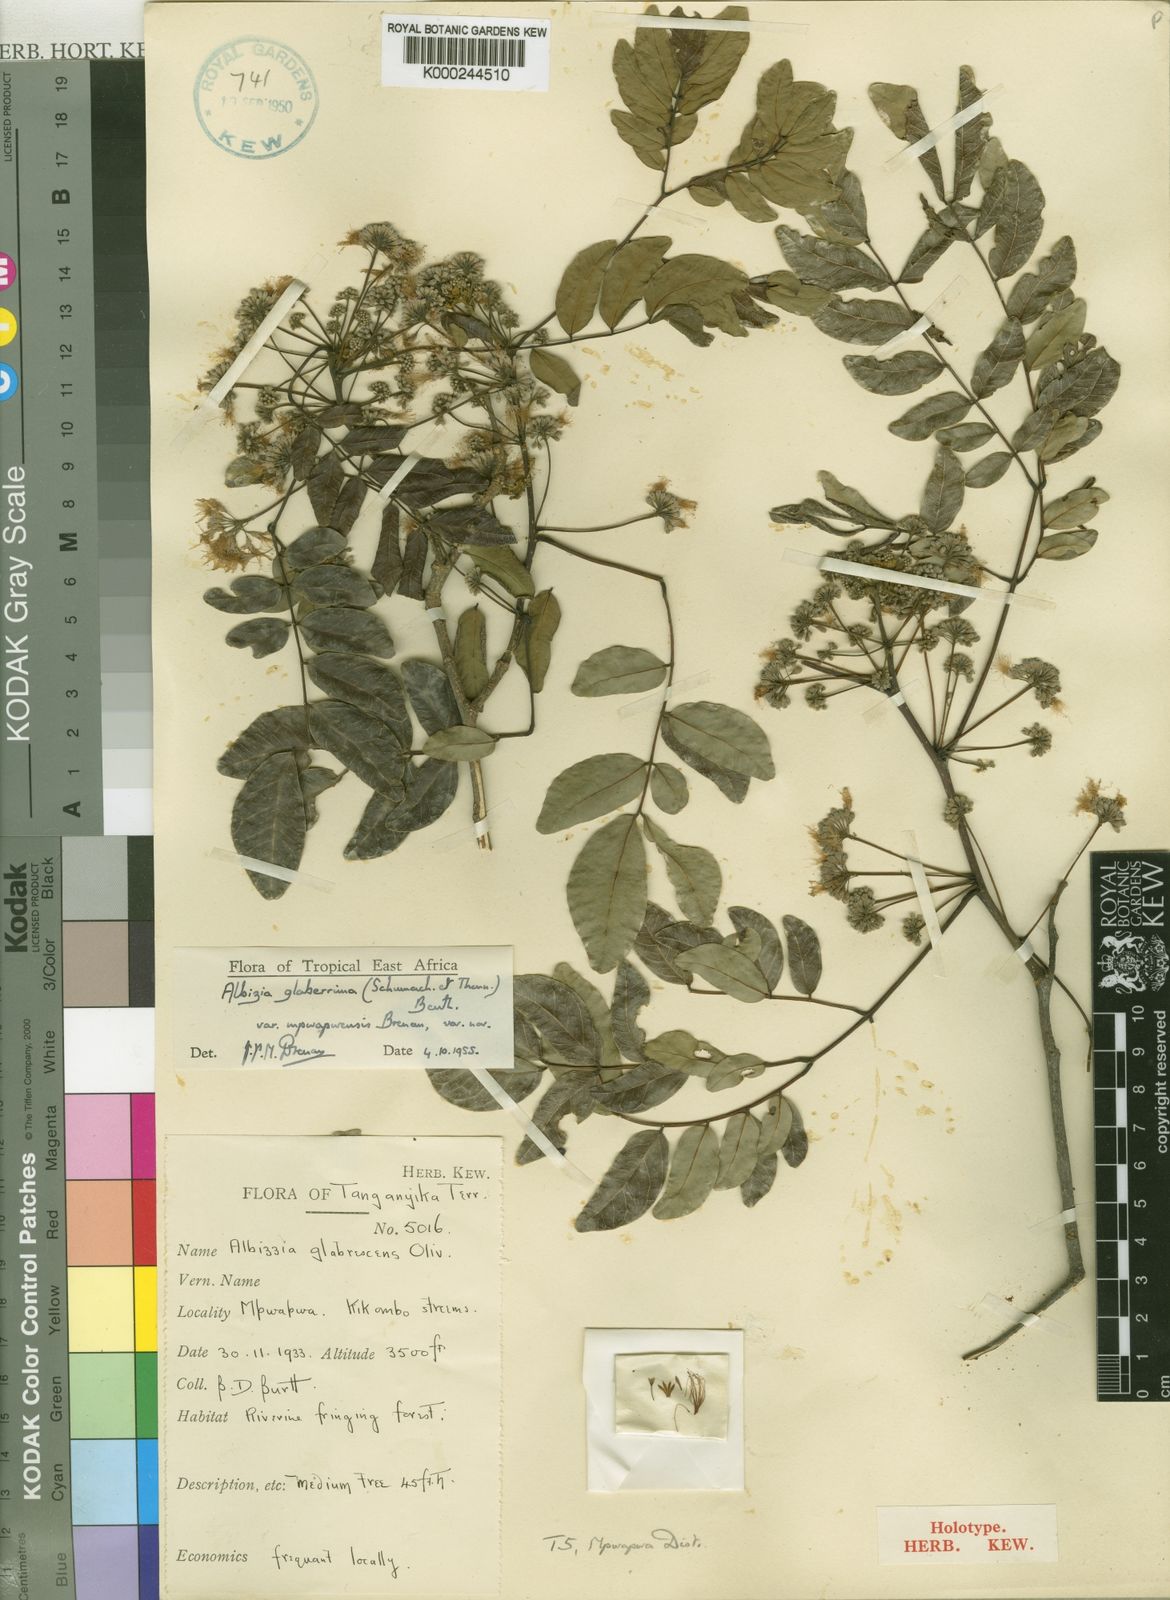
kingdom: Plantae
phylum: Tracheophyta
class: Magnoliopsida
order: Fabales
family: Fabaceae
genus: Albizia
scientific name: Albizia glaberrima
